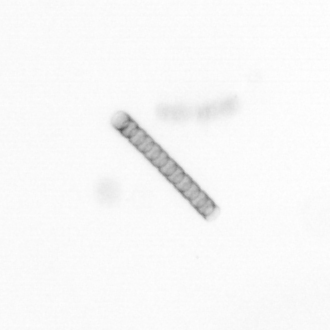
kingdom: Chromista
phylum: Ochrophyta
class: Bacillariophyceae
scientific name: Bacillariophyceae
